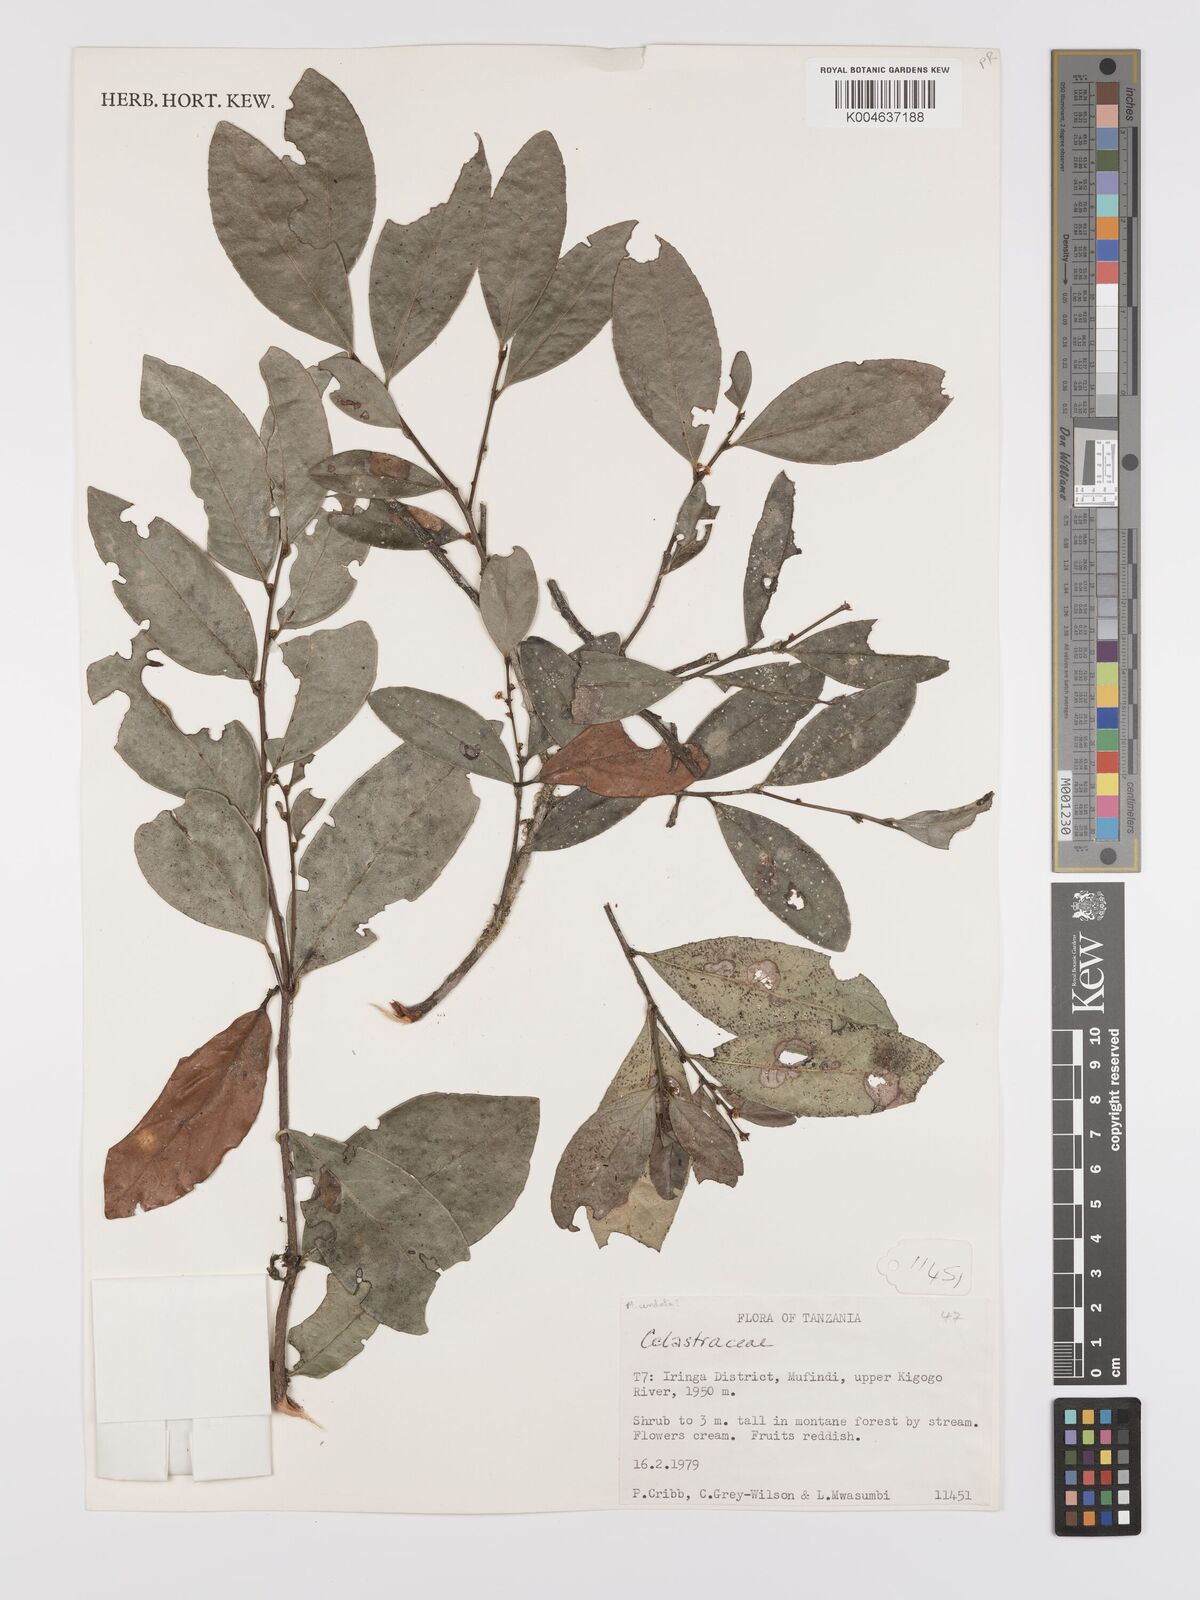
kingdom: Plantae
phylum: Tracheophyta
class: Magnoliopsida
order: Celastrales
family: Celastraceae
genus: Gymnosporia
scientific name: Gymnosporia undata
